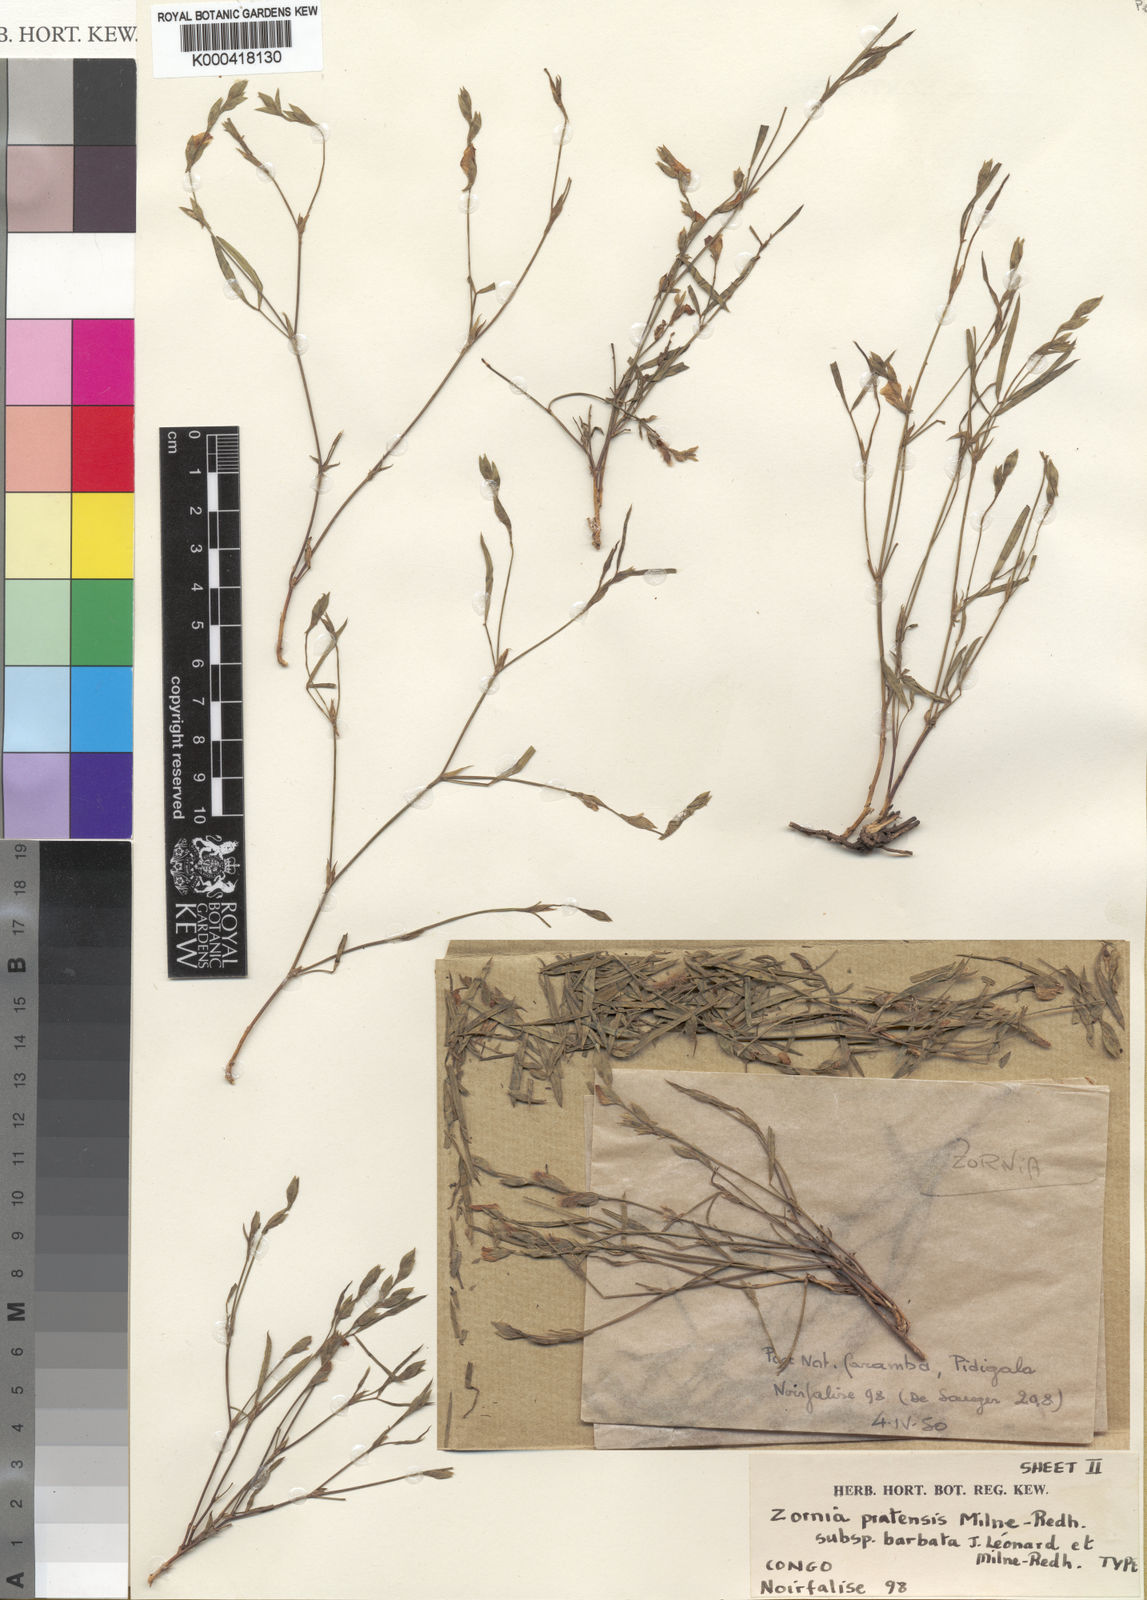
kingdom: Plantae
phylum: Tracheophyta
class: Magnoliopsida
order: Fabales
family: Fabaceae
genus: Zornia
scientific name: Zornia pratensis
